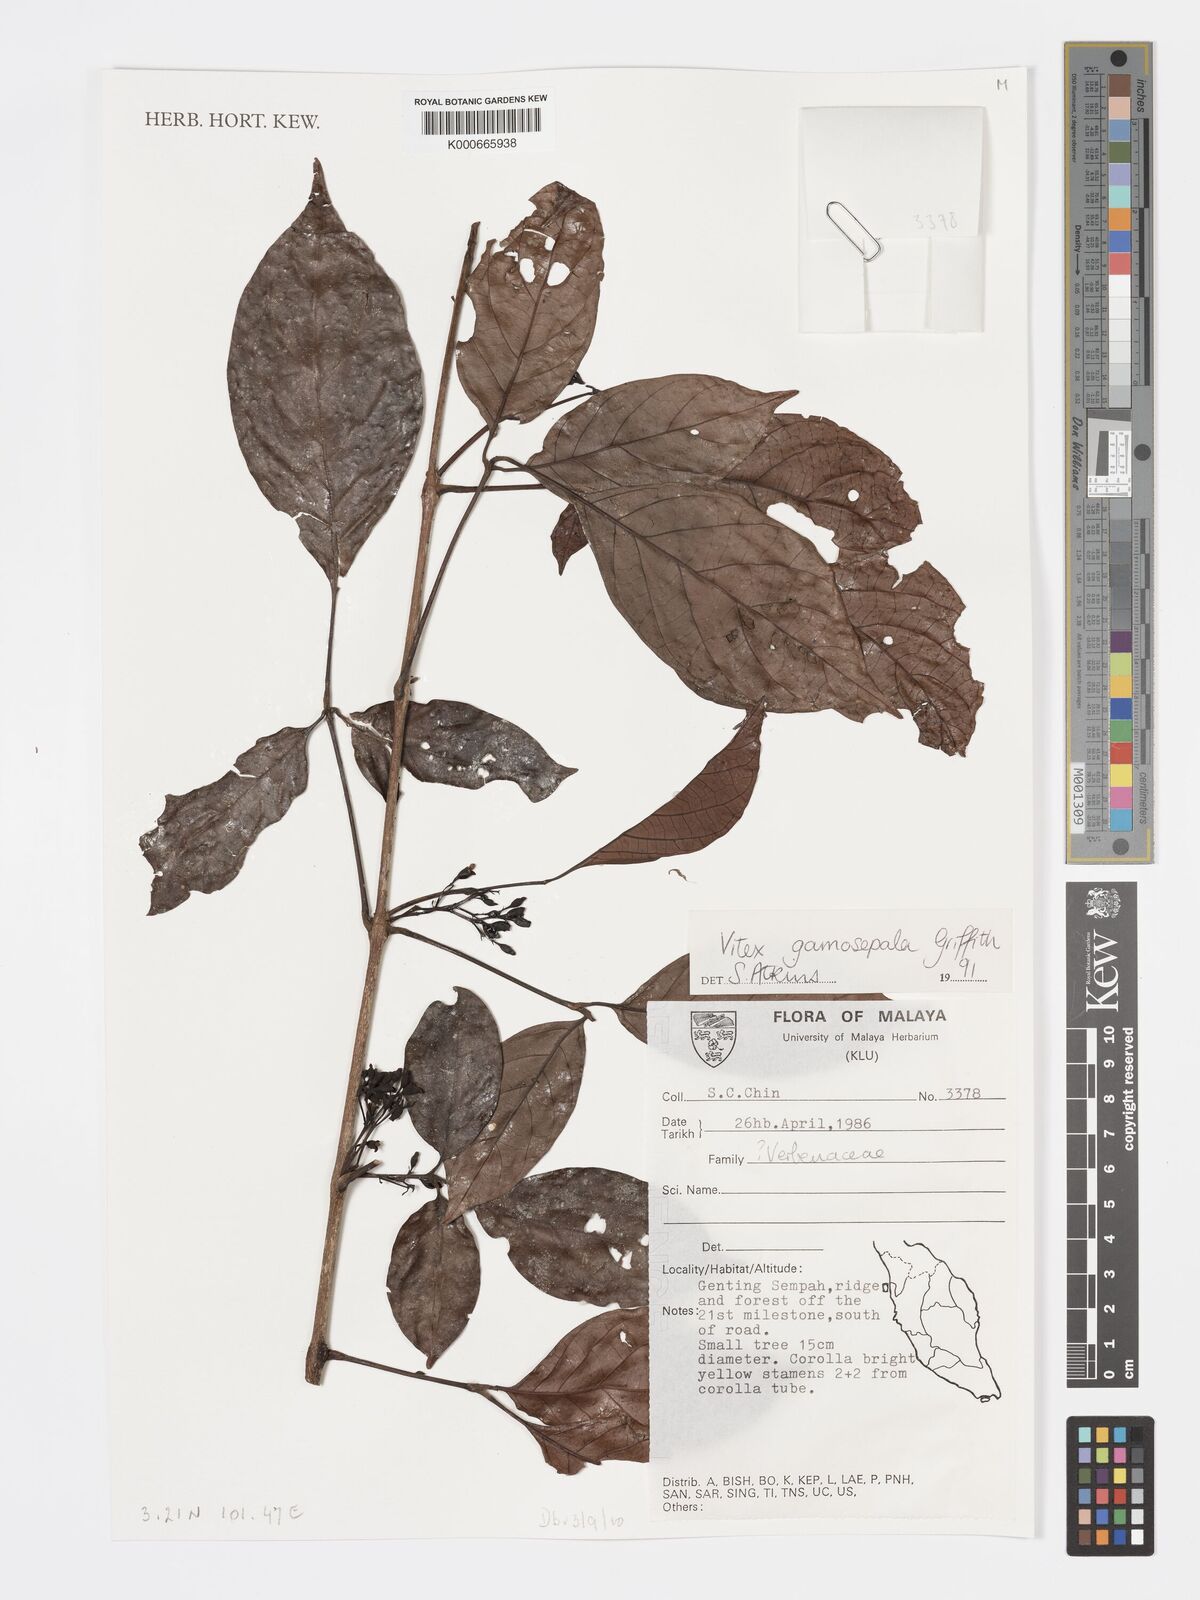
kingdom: Plantae
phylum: Tracheophyta
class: Magnoliopsida
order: Lamiales
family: Lamiaceae
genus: Vitex
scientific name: Vitex gamosepala
